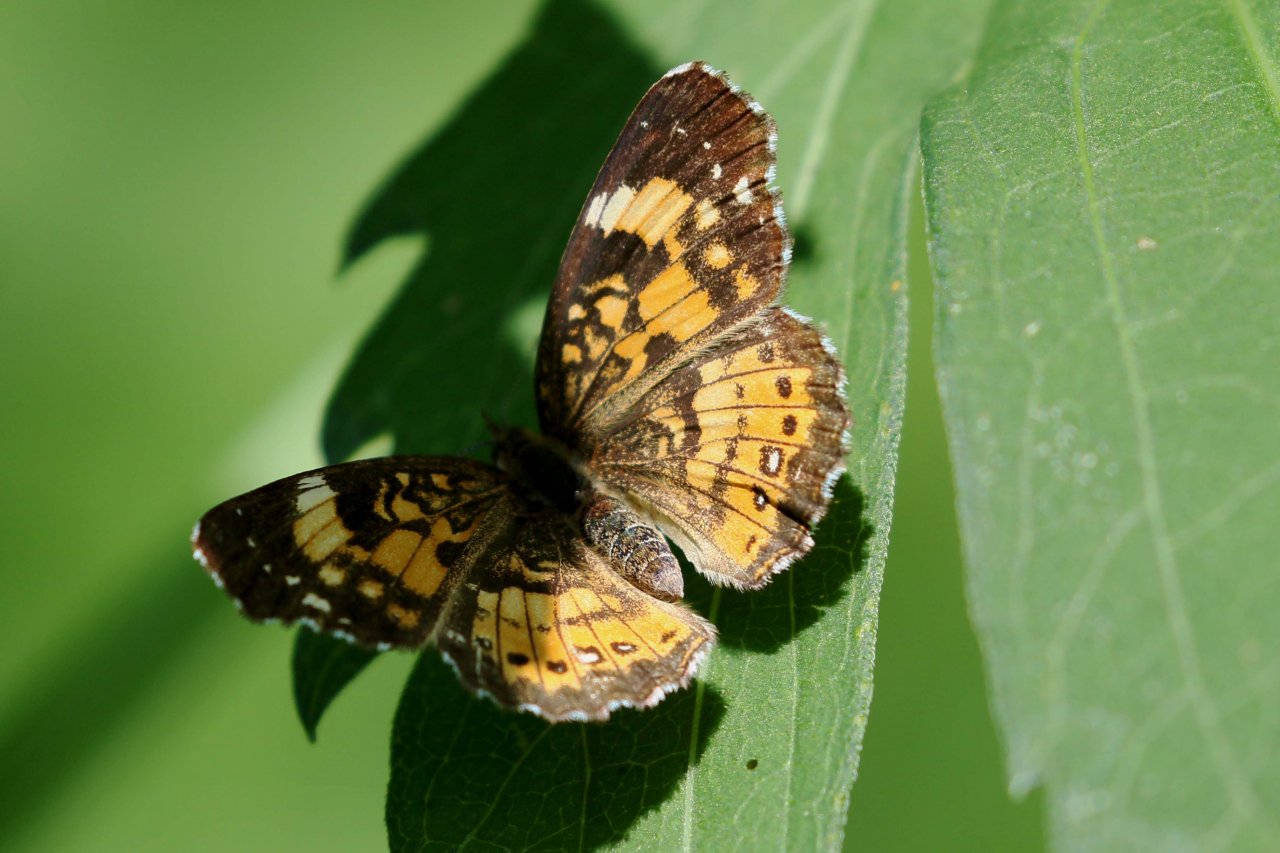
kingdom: Animalia
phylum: Arthropoda
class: Insecta
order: Lepidoptera
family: Nymphalidae
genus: Chlosyne
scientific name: Chlosyne nycteis
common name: Silvery Checkerspot
